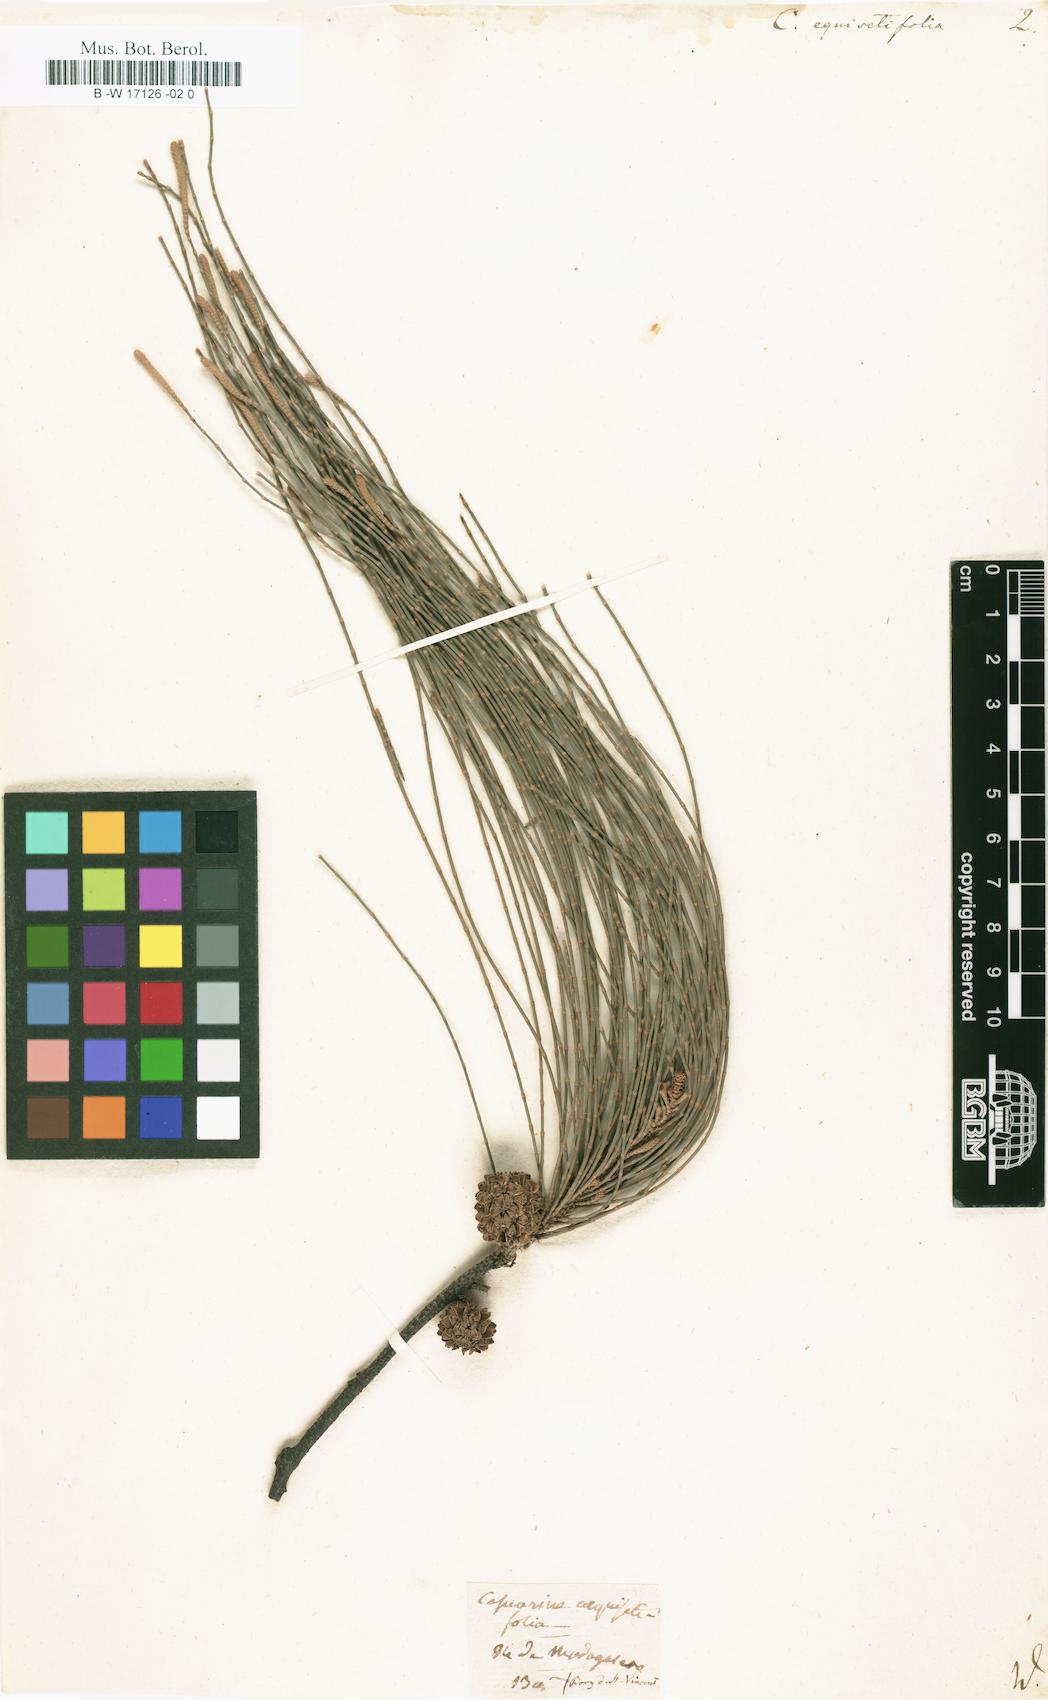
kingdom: Plantae
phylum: Tracheophyta
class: Magnoliopsida
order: Fagales
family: Casuarinaceae
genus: Casuarina
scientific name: Casuarina equisetifolia
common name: Beach sheoak
